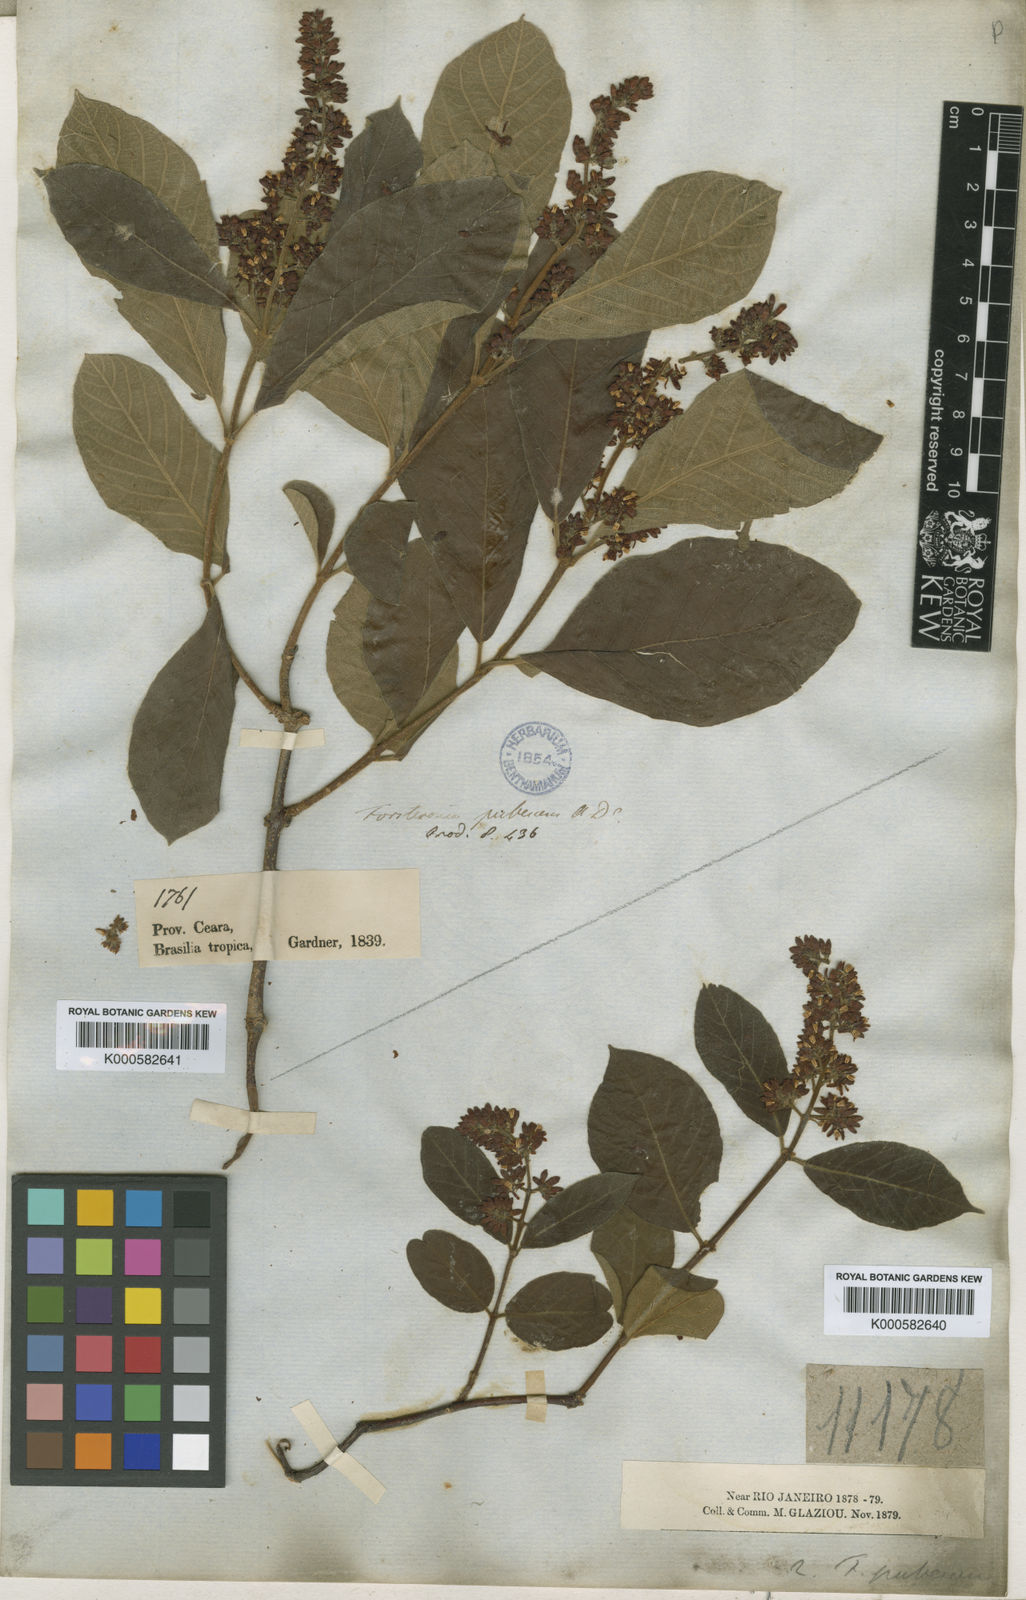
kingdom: Plantae
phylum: Tracheophyta
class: Magnoliopsida
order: Gentianales
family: Apocynaceae
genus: Forsteronia
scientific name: Forsteronia pubescens
